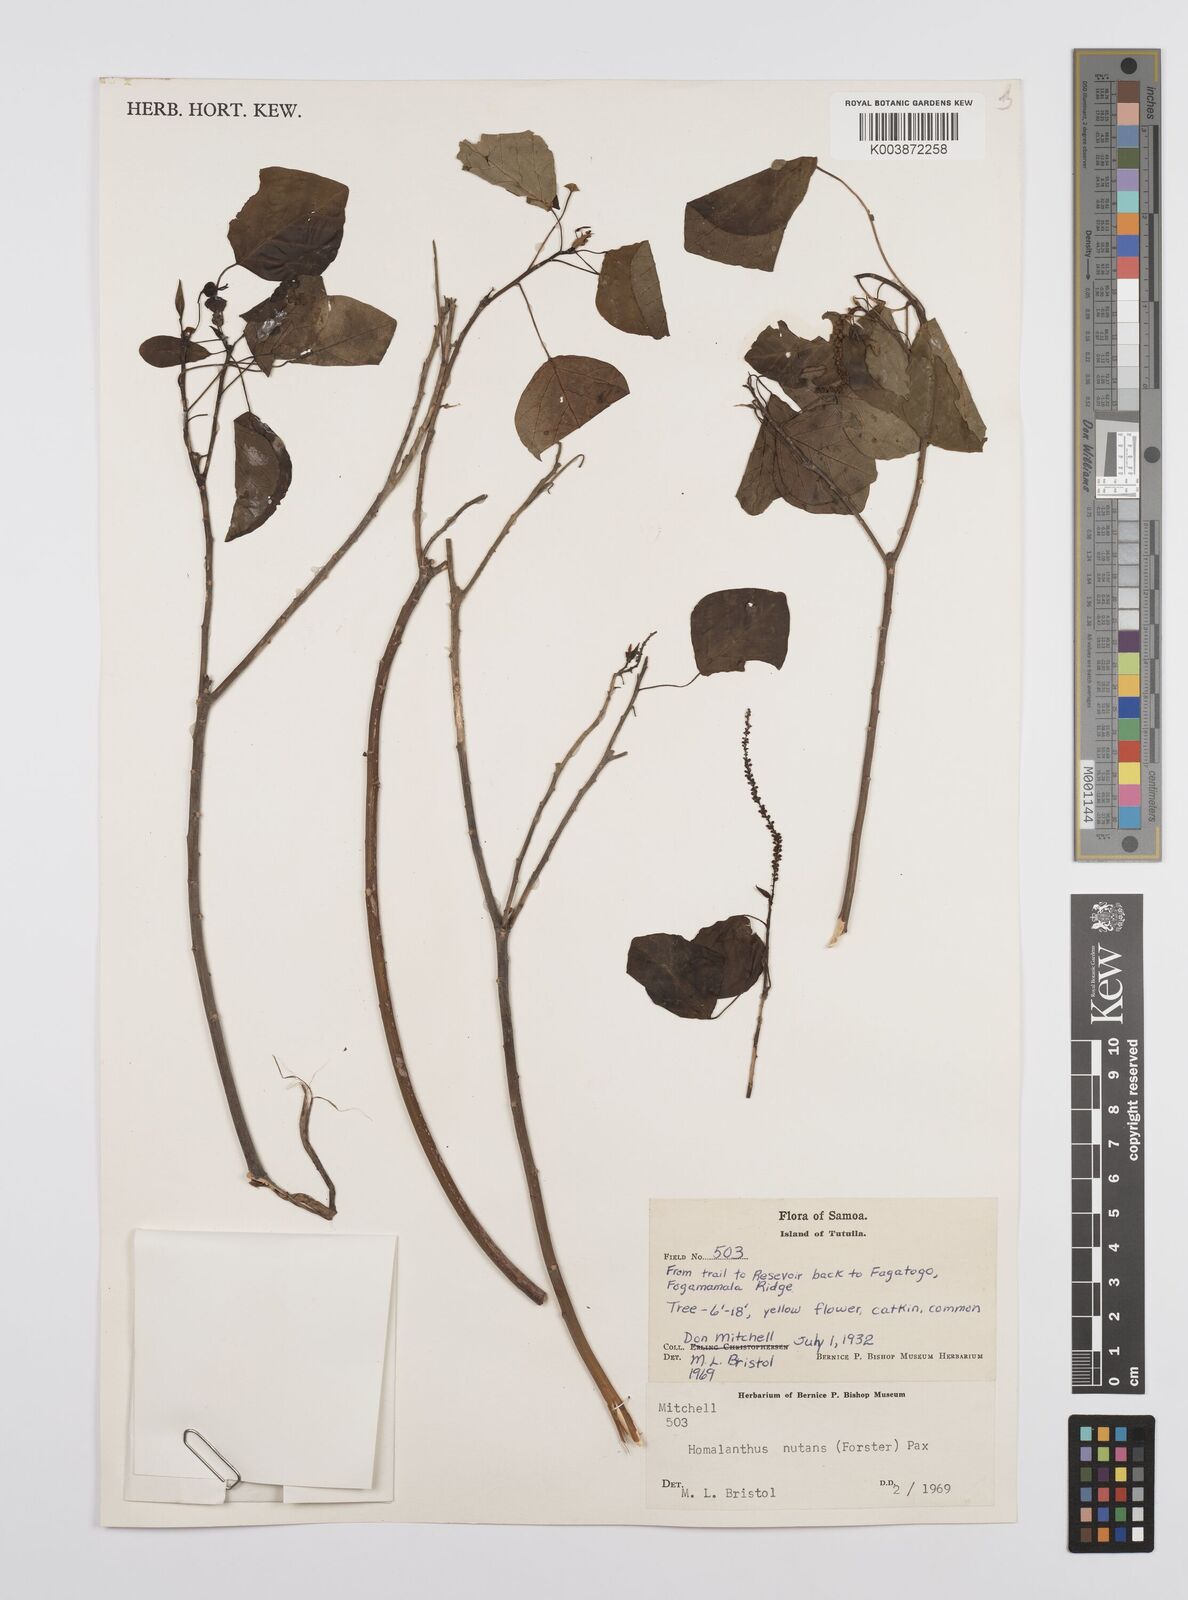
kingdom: Plantae
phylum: Tracheophyta
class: Magnoliopsida
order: Malpighiales
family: Euphorbiaceae
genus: Homalanthus
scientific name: Homalanthus nutans
